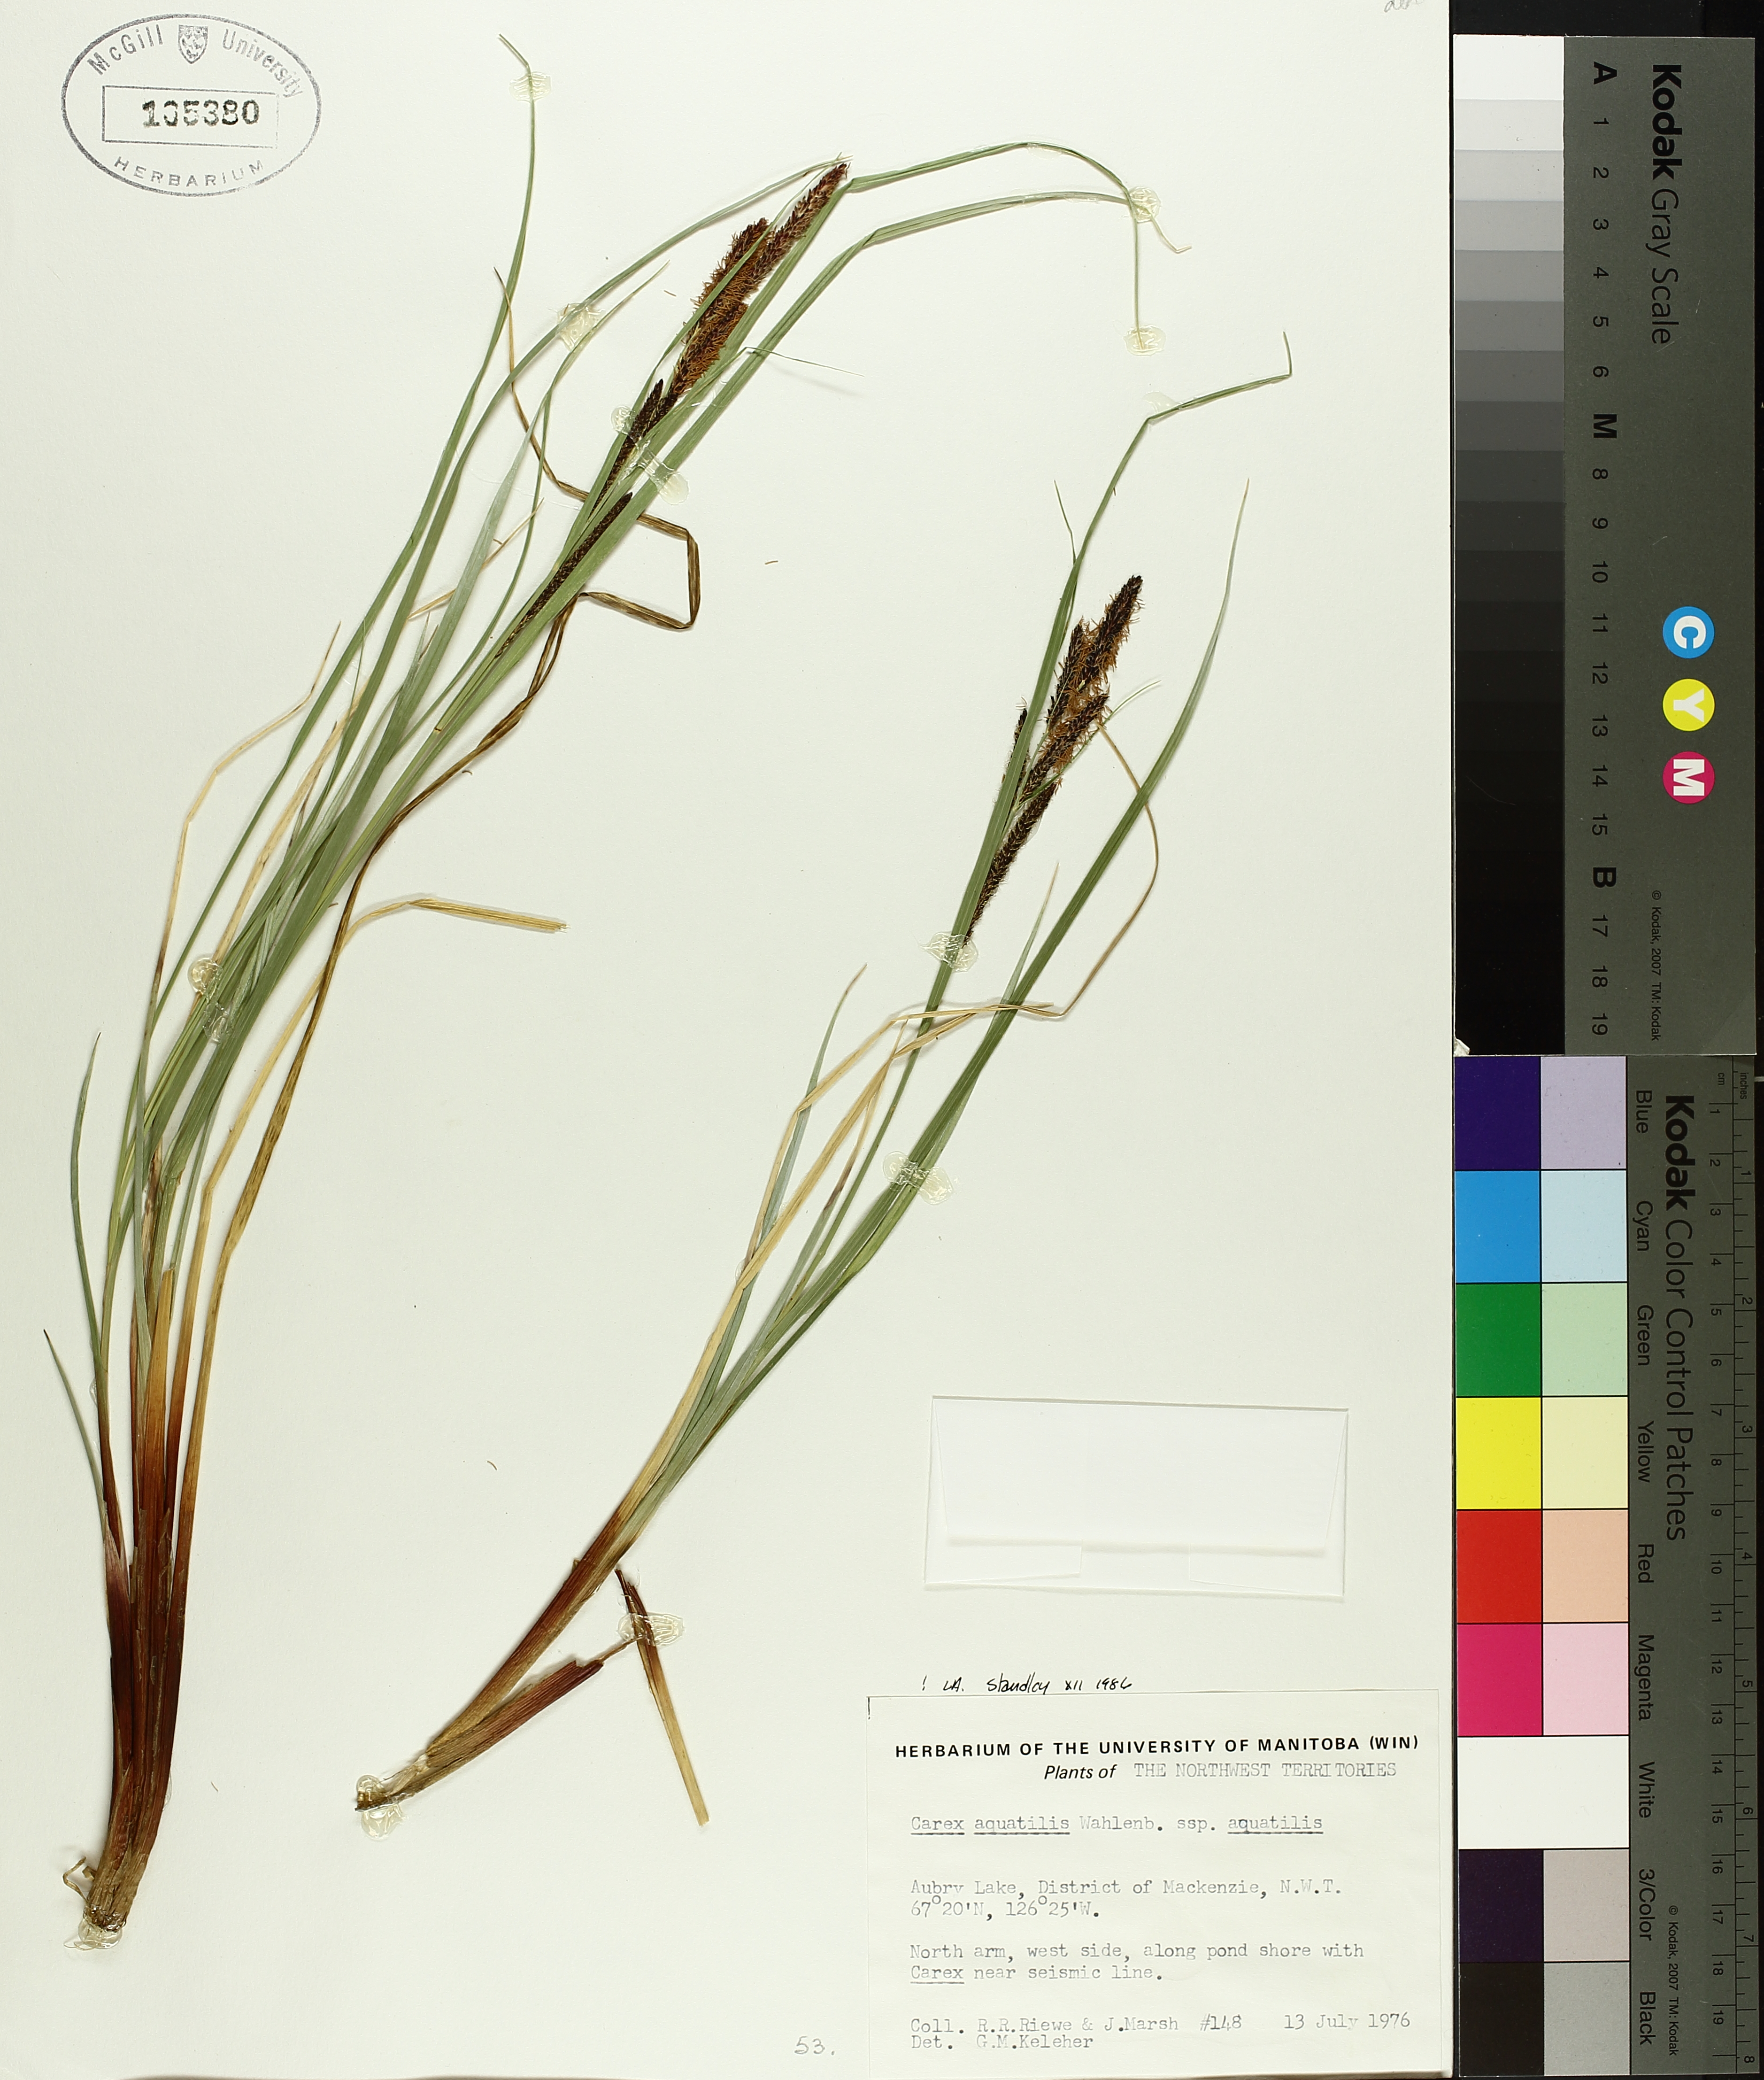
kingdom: Plantae
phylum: Tracheophyta
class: Liliopsida
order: Poales
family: Cyperaceae
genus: Carex
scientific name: Carex aquatilis
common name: Water sedge
